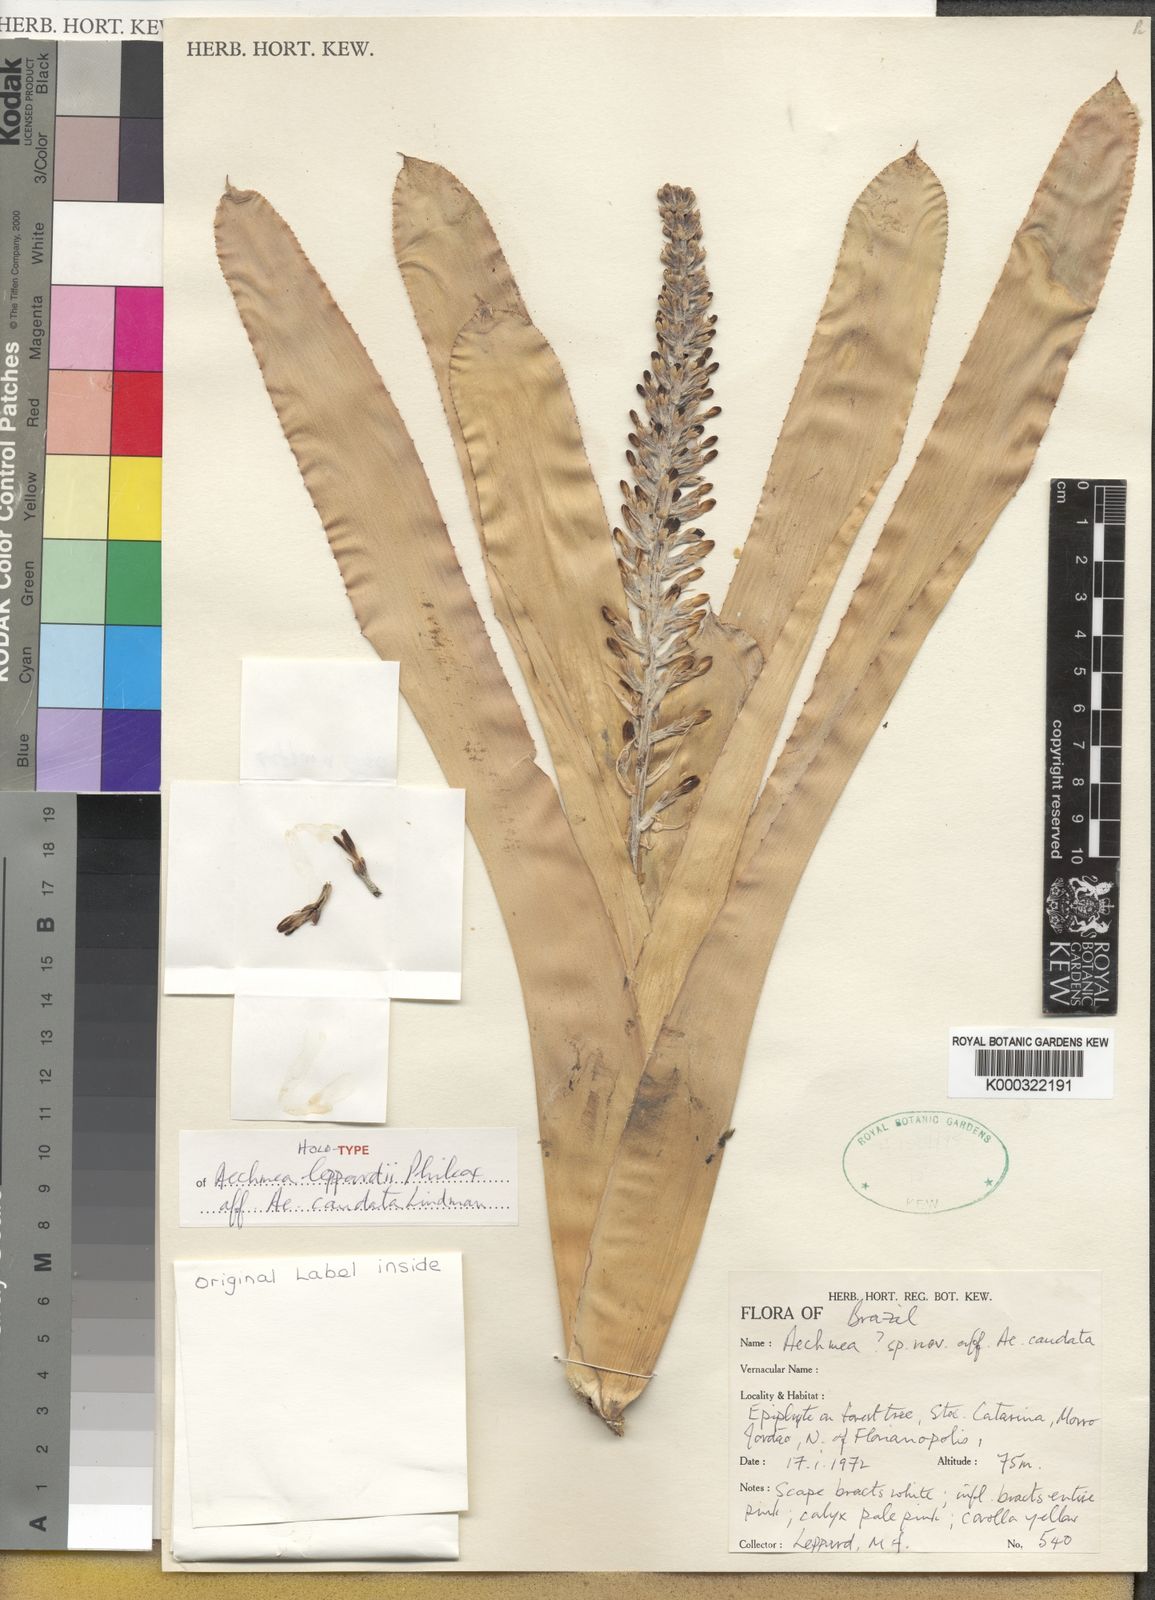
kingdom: Plantae
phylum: Tracheophyta
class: Liliopsida
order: Poales
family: Bromeliaceae
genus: Aechmea
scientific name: Aechmea leppardii
